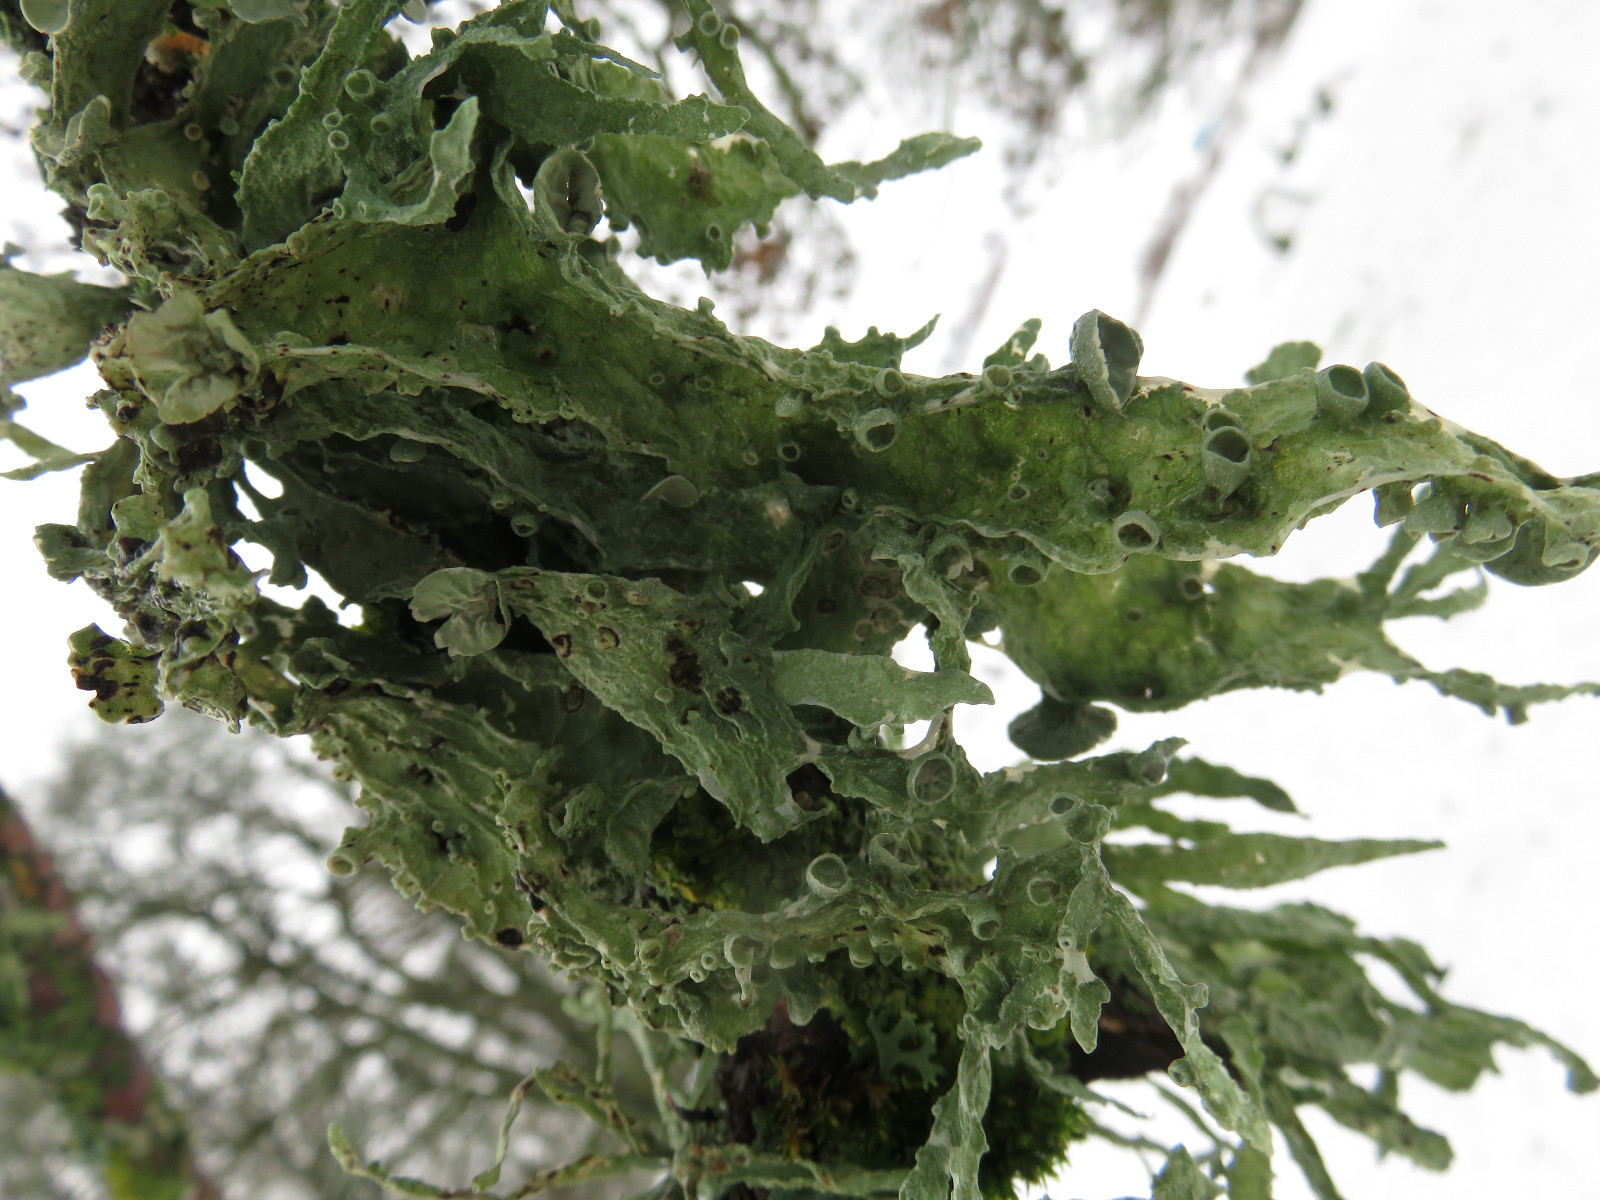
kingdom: Fungi
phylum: Ascomycota
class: Lecanoromycetes
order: Lecanorales
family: Ramalinaceae
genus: Ramalina
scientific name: Ramalina fraxinea
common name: stor grenlav
